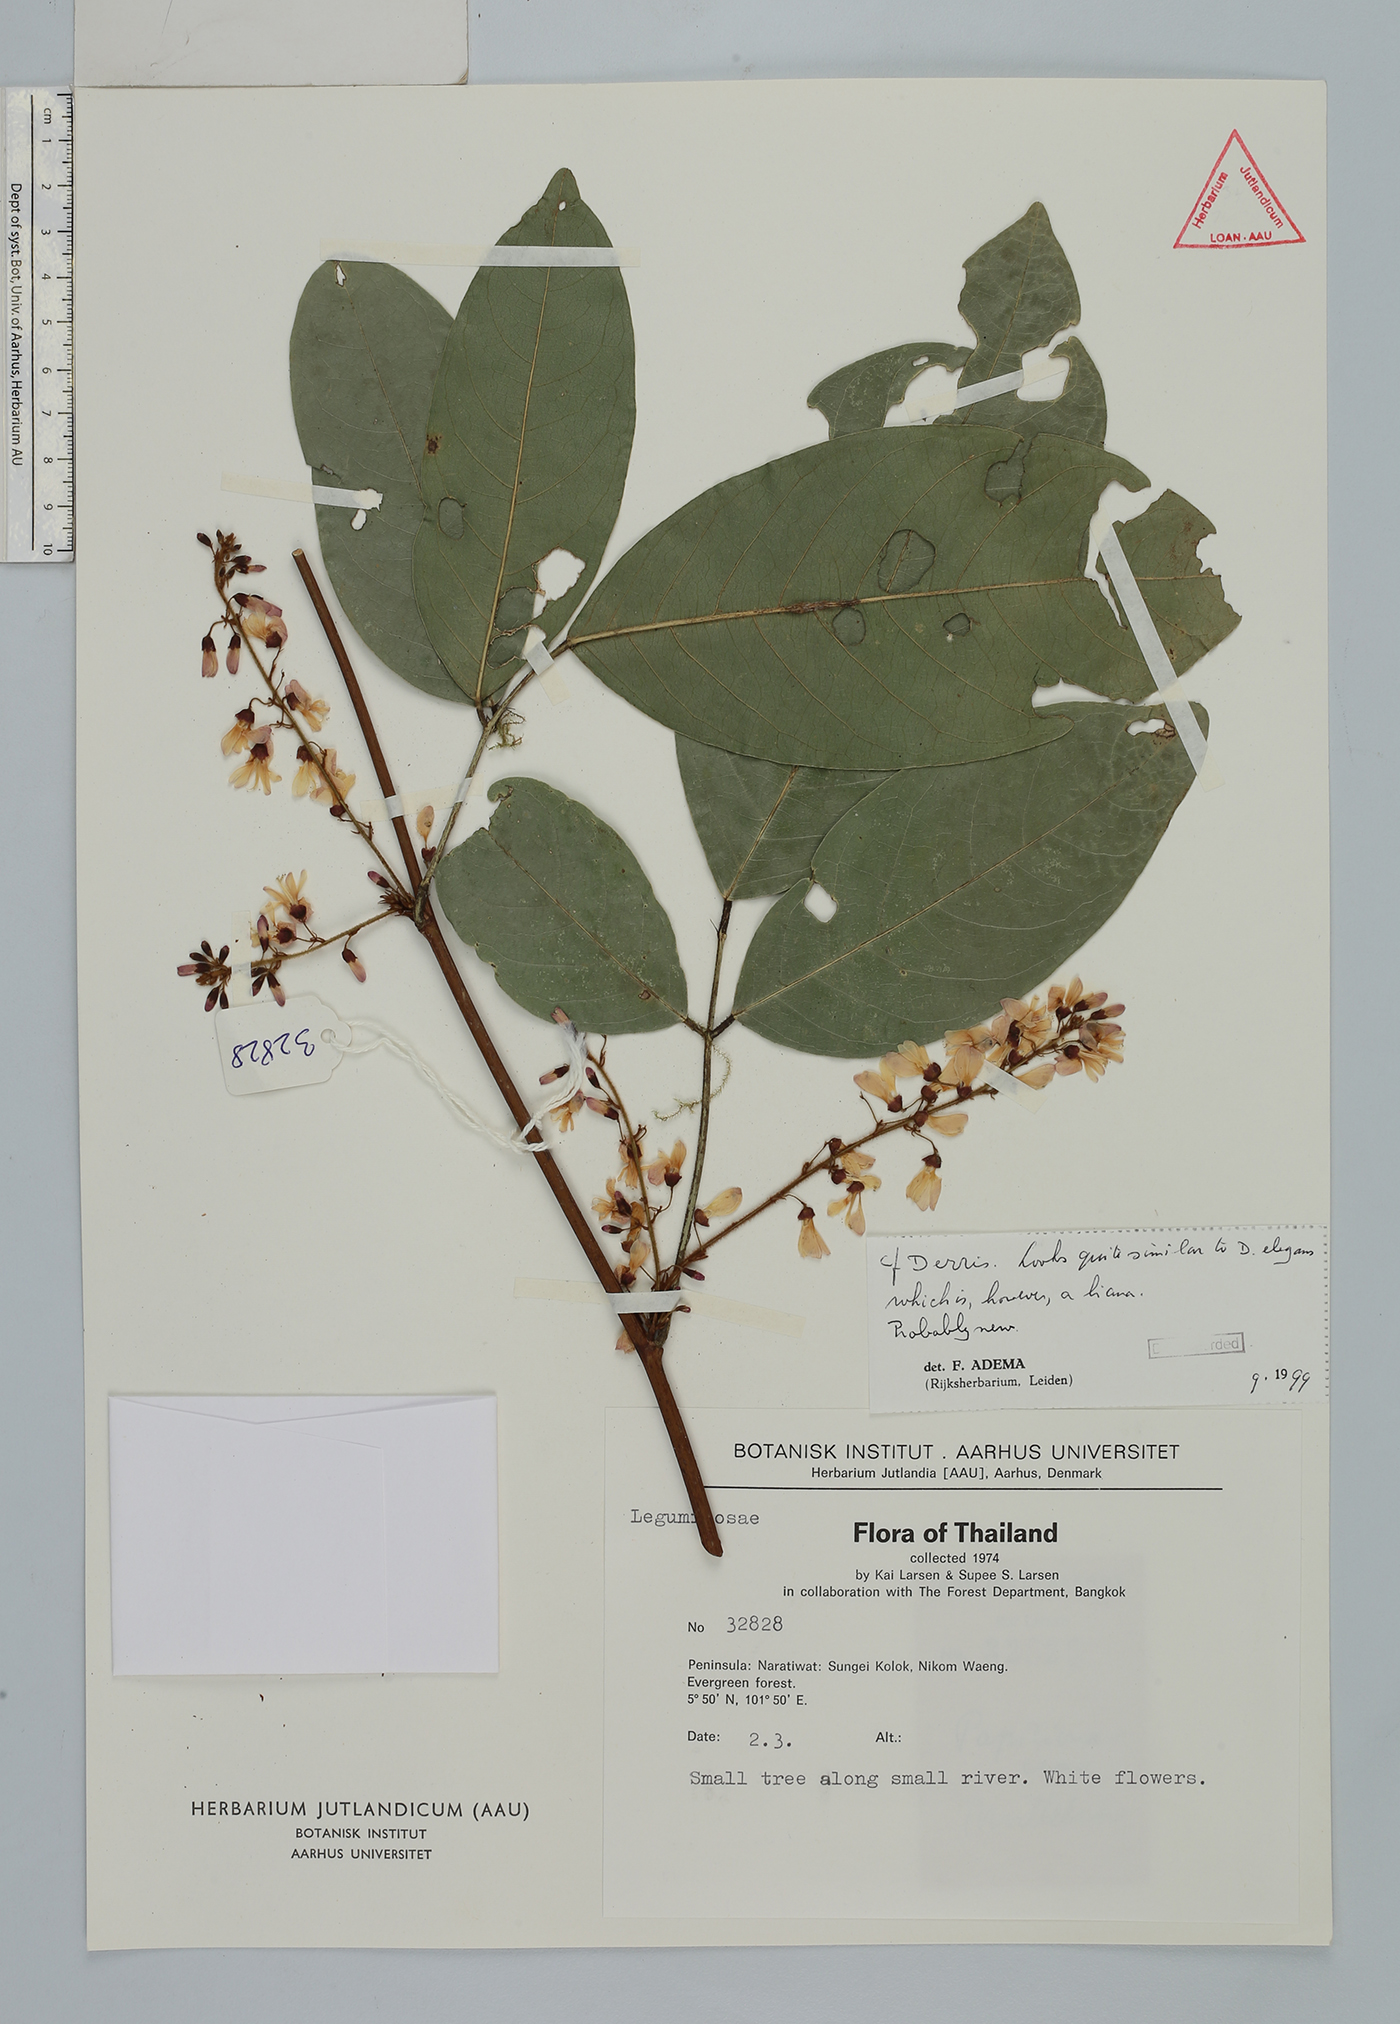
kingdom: Plantae
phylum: Tracheophyta
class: Magnoliopsida
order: Fabales
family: Fabaceae
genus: Derris
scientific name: Derris
